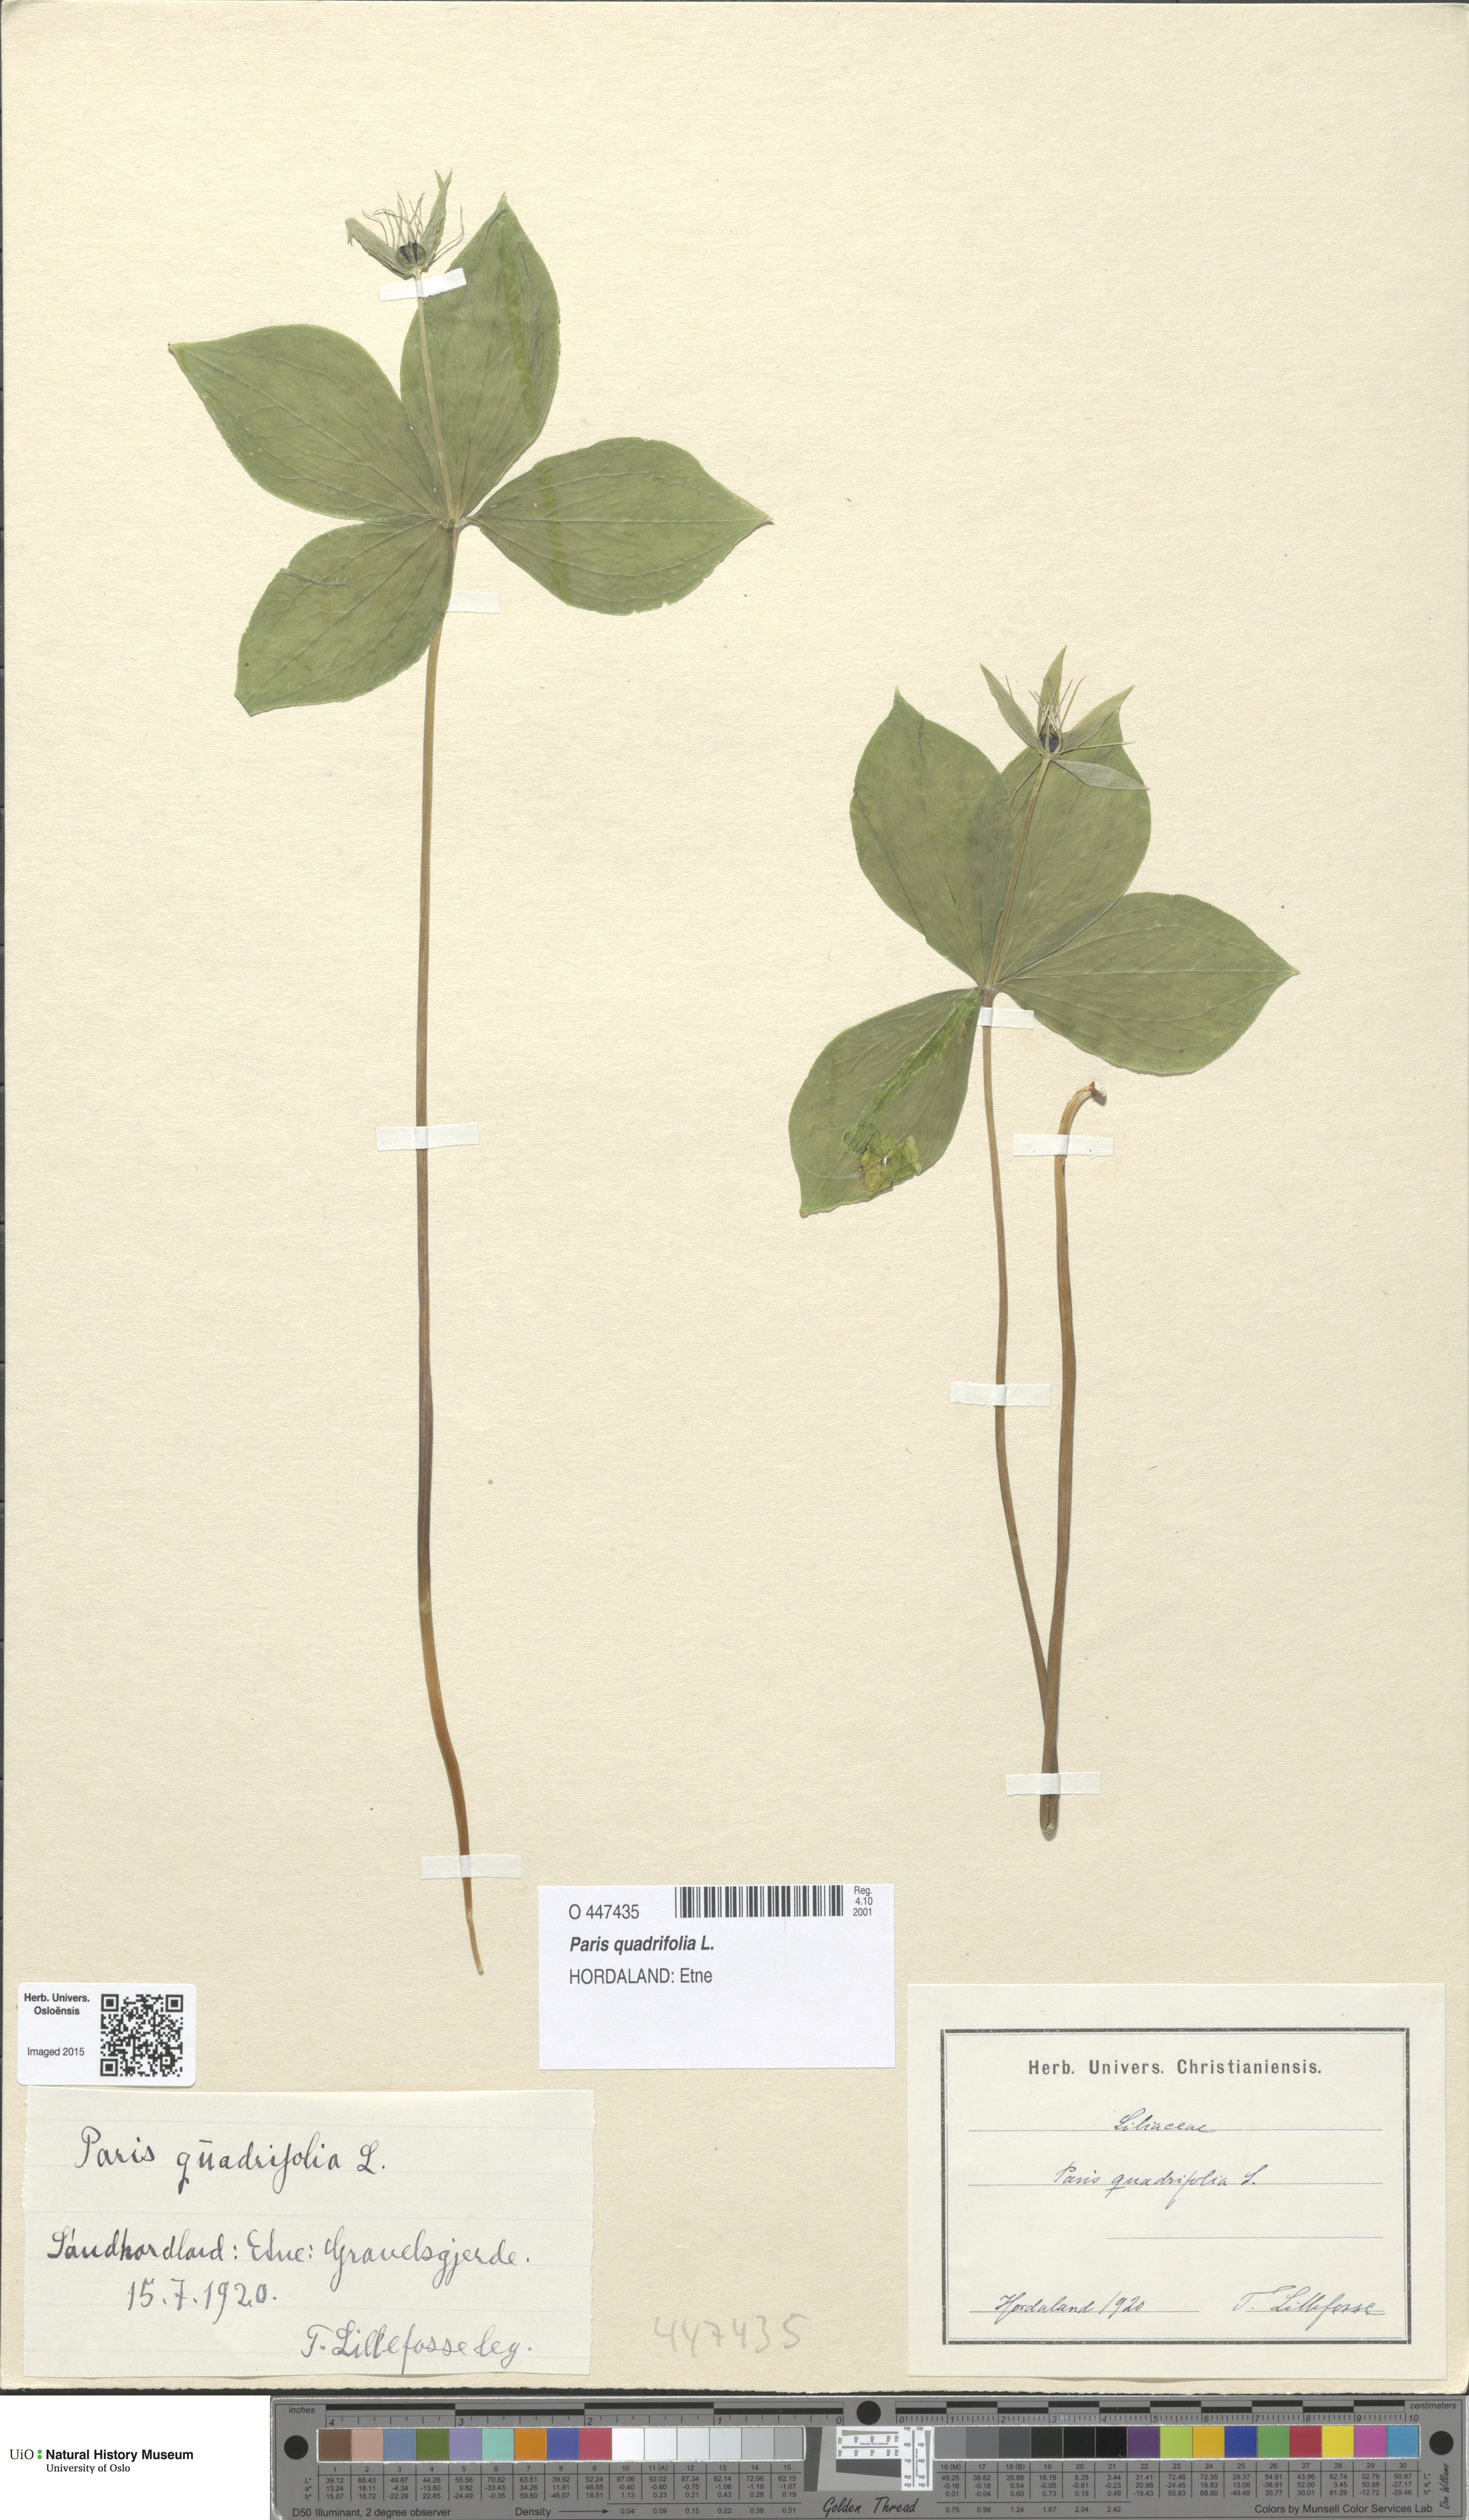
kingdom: Plantae
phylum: Tracheophyta
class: Liliopsida
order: Liliales
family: Melanthiaceae
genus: Paris
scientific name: Paris quadrifolia
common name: Herb-paris
